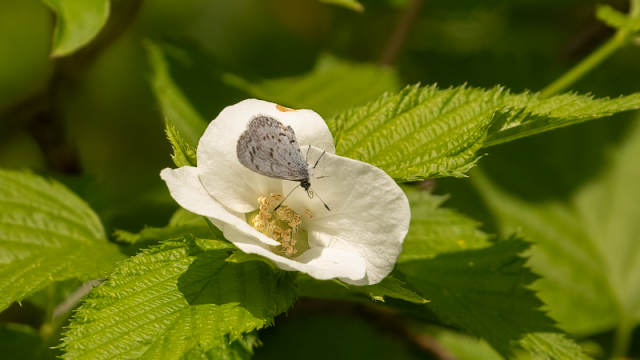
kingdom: Animalia
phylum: Arthropoda
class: Insecta
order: Lepidoptera
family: Lycaenidae
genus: Celastrina
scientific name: Celastrina lucia
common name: Northern Spring Azure
